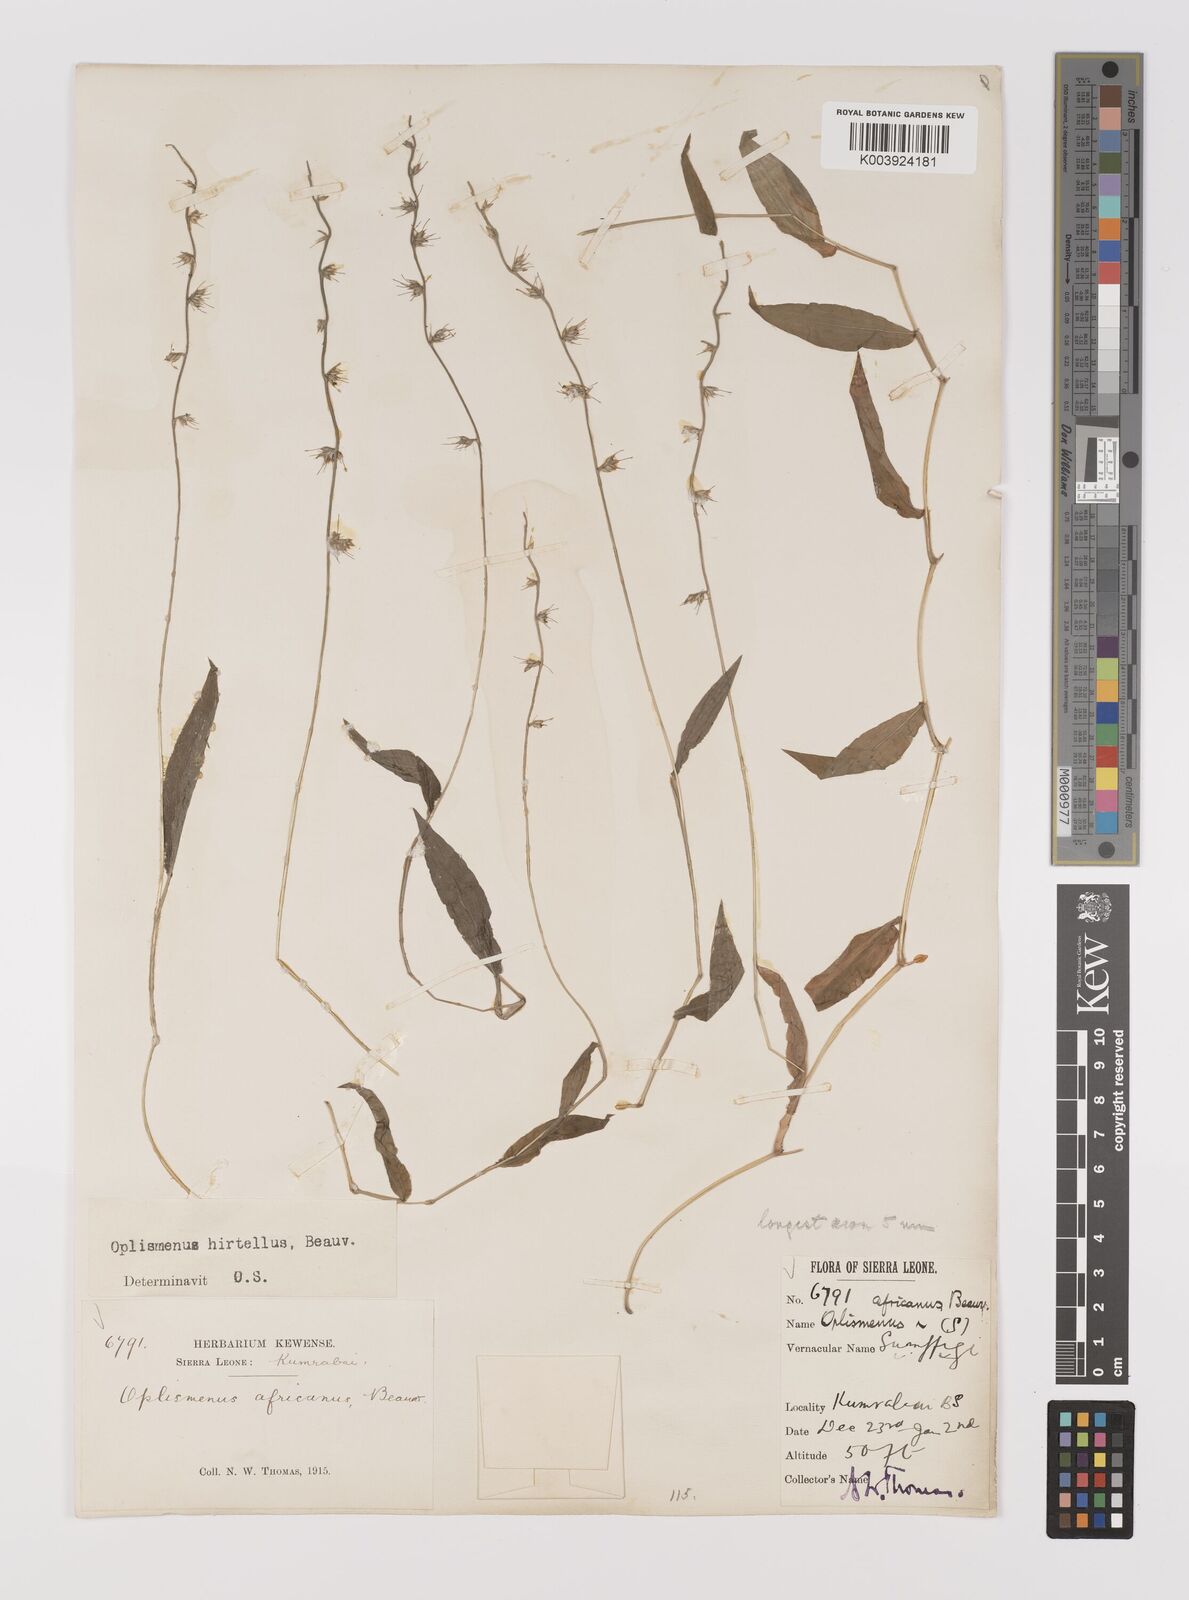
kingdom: Plantae
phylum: Tracheophyta
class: Liliopsida
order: Poales
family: Poaceae
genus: Oplismenus
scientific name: Oplismenus hirtellus
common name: Basketgrass
